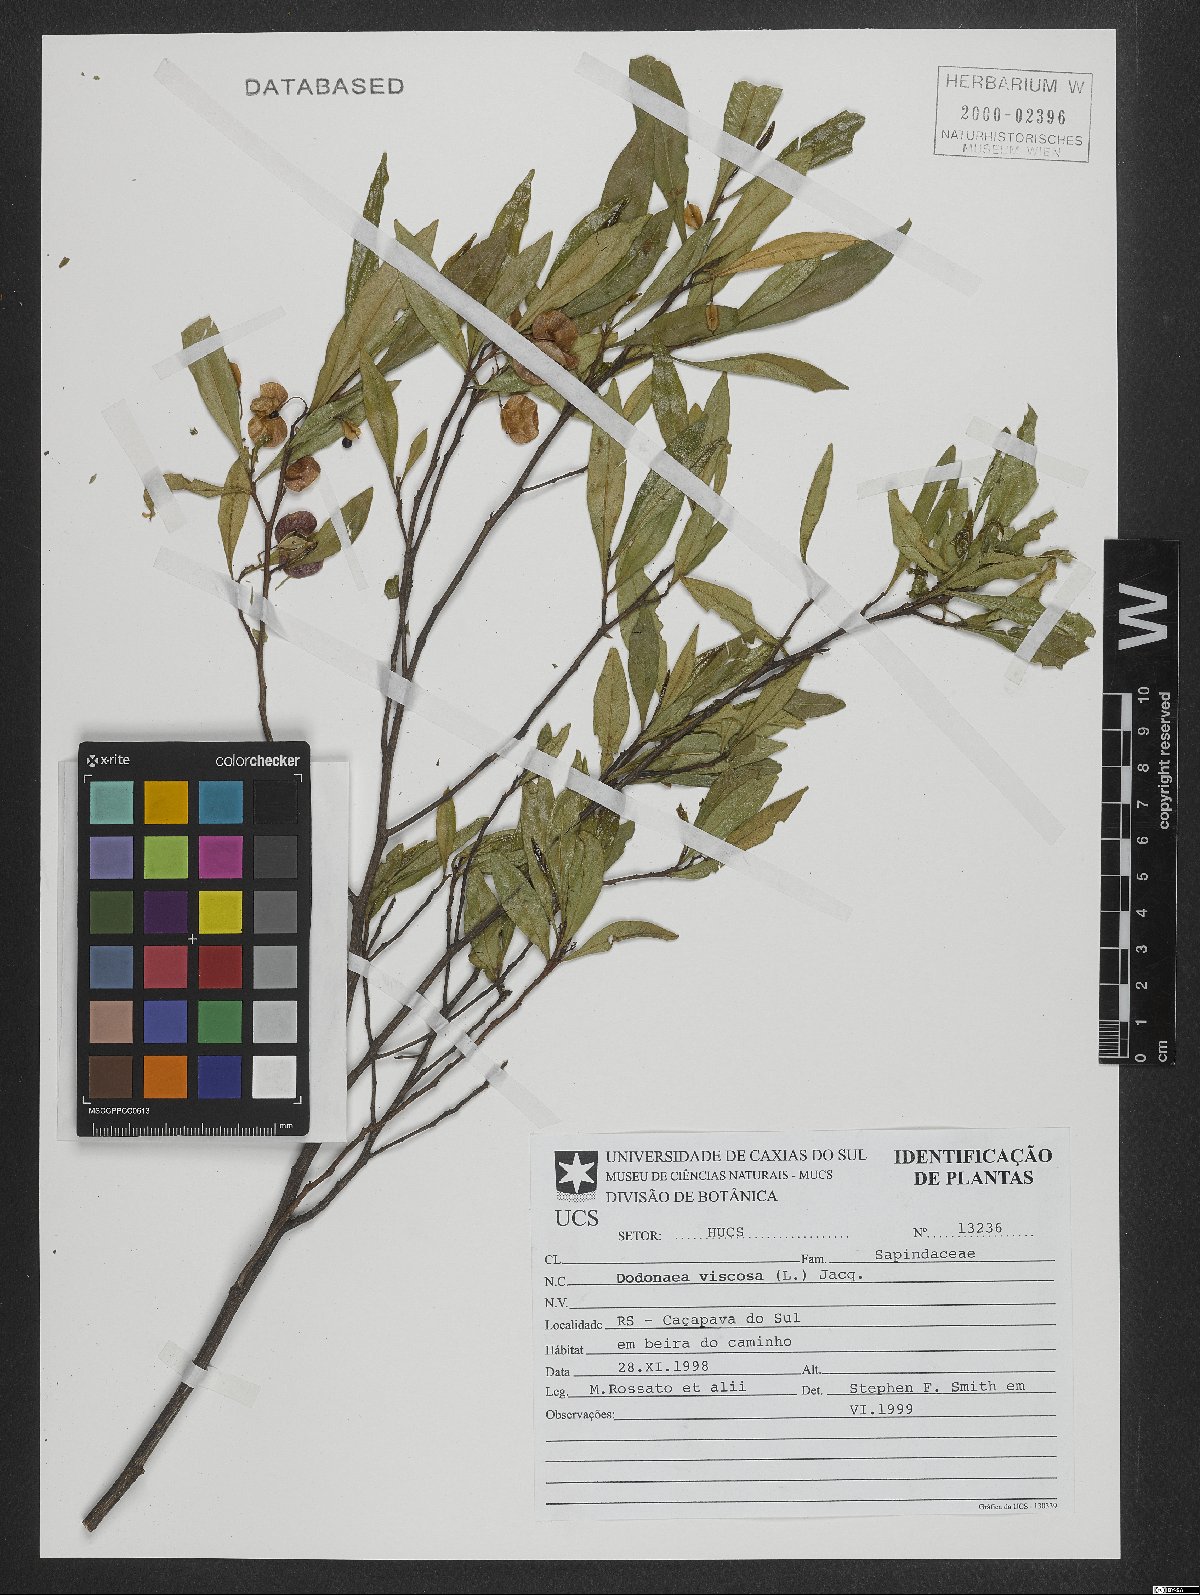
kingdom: Plantae
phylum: Tracheophyta
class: Magnoliopsida
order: Sapindales
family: Sapindaceae
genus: Dodonaea
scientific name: Dodonaea viscosa
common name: Hopbush
